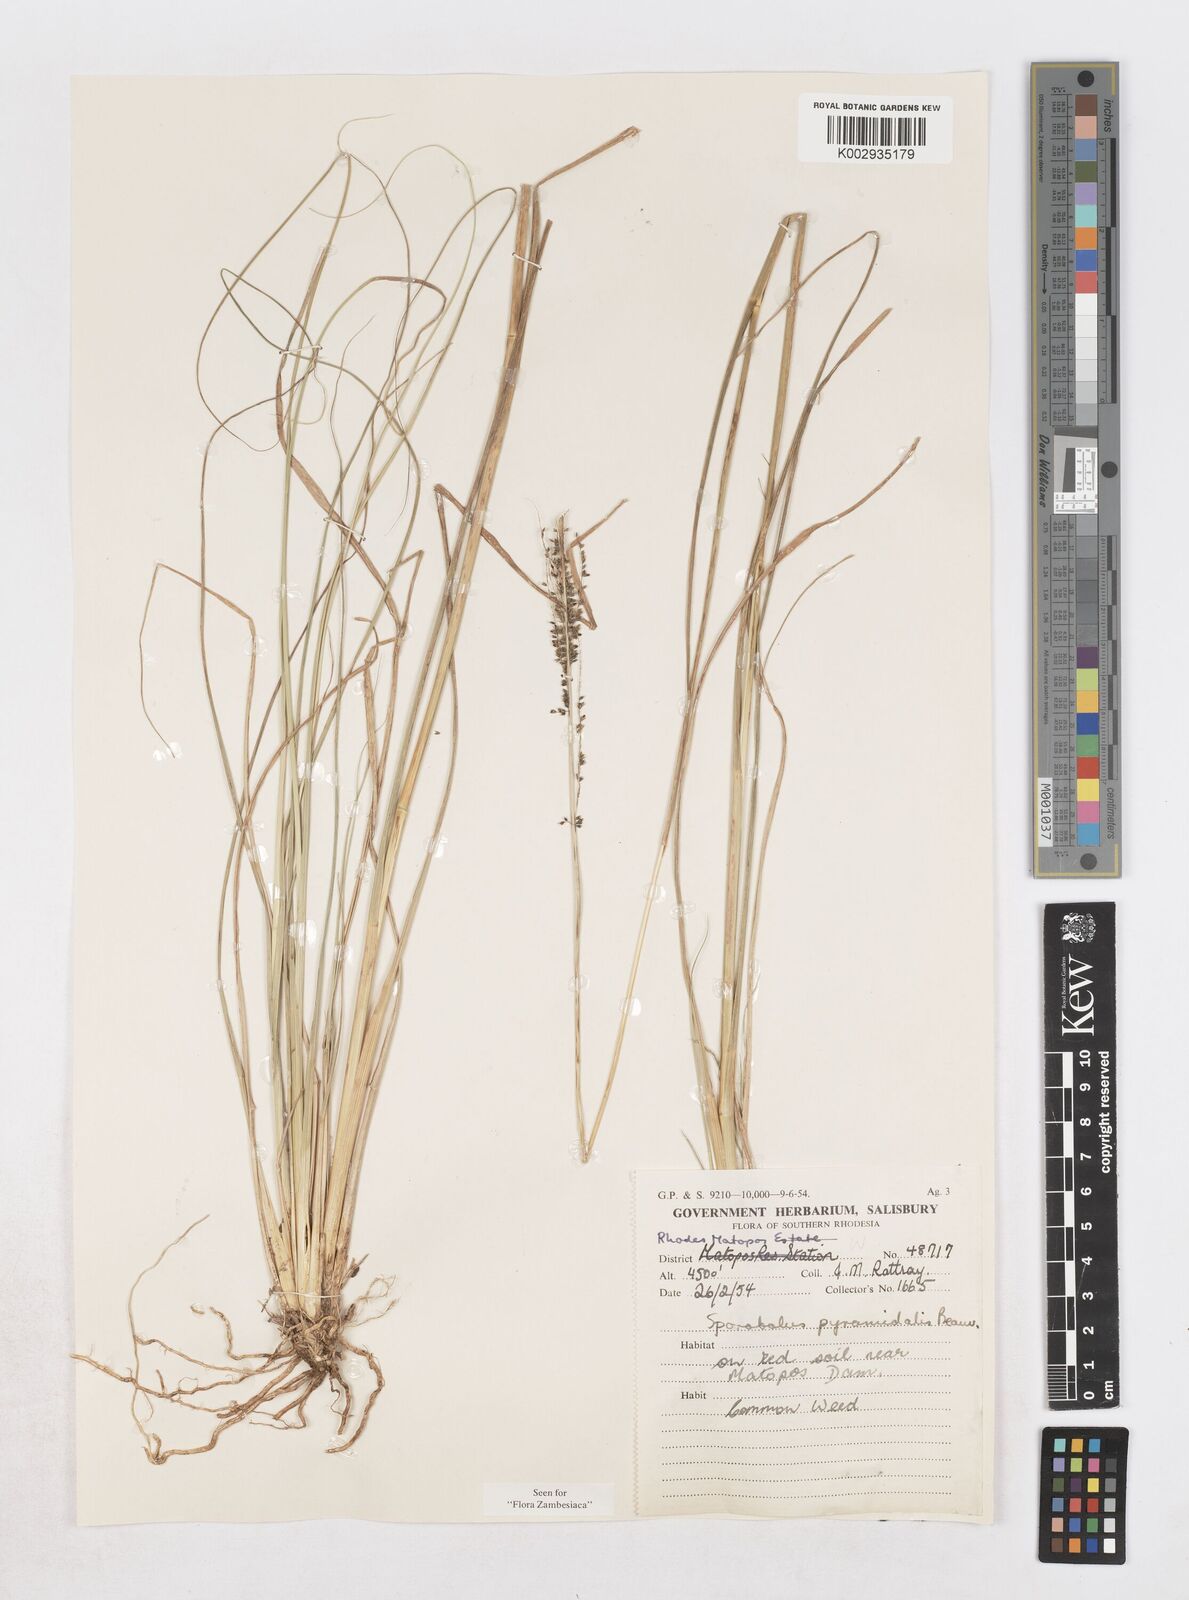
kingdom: Plantae
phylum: Tracheophyta
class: Liliopsida
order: Poales
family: Poaceae
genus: Sporobolus
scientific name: Sporobolus pyramidalis
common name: West indian dropseed
